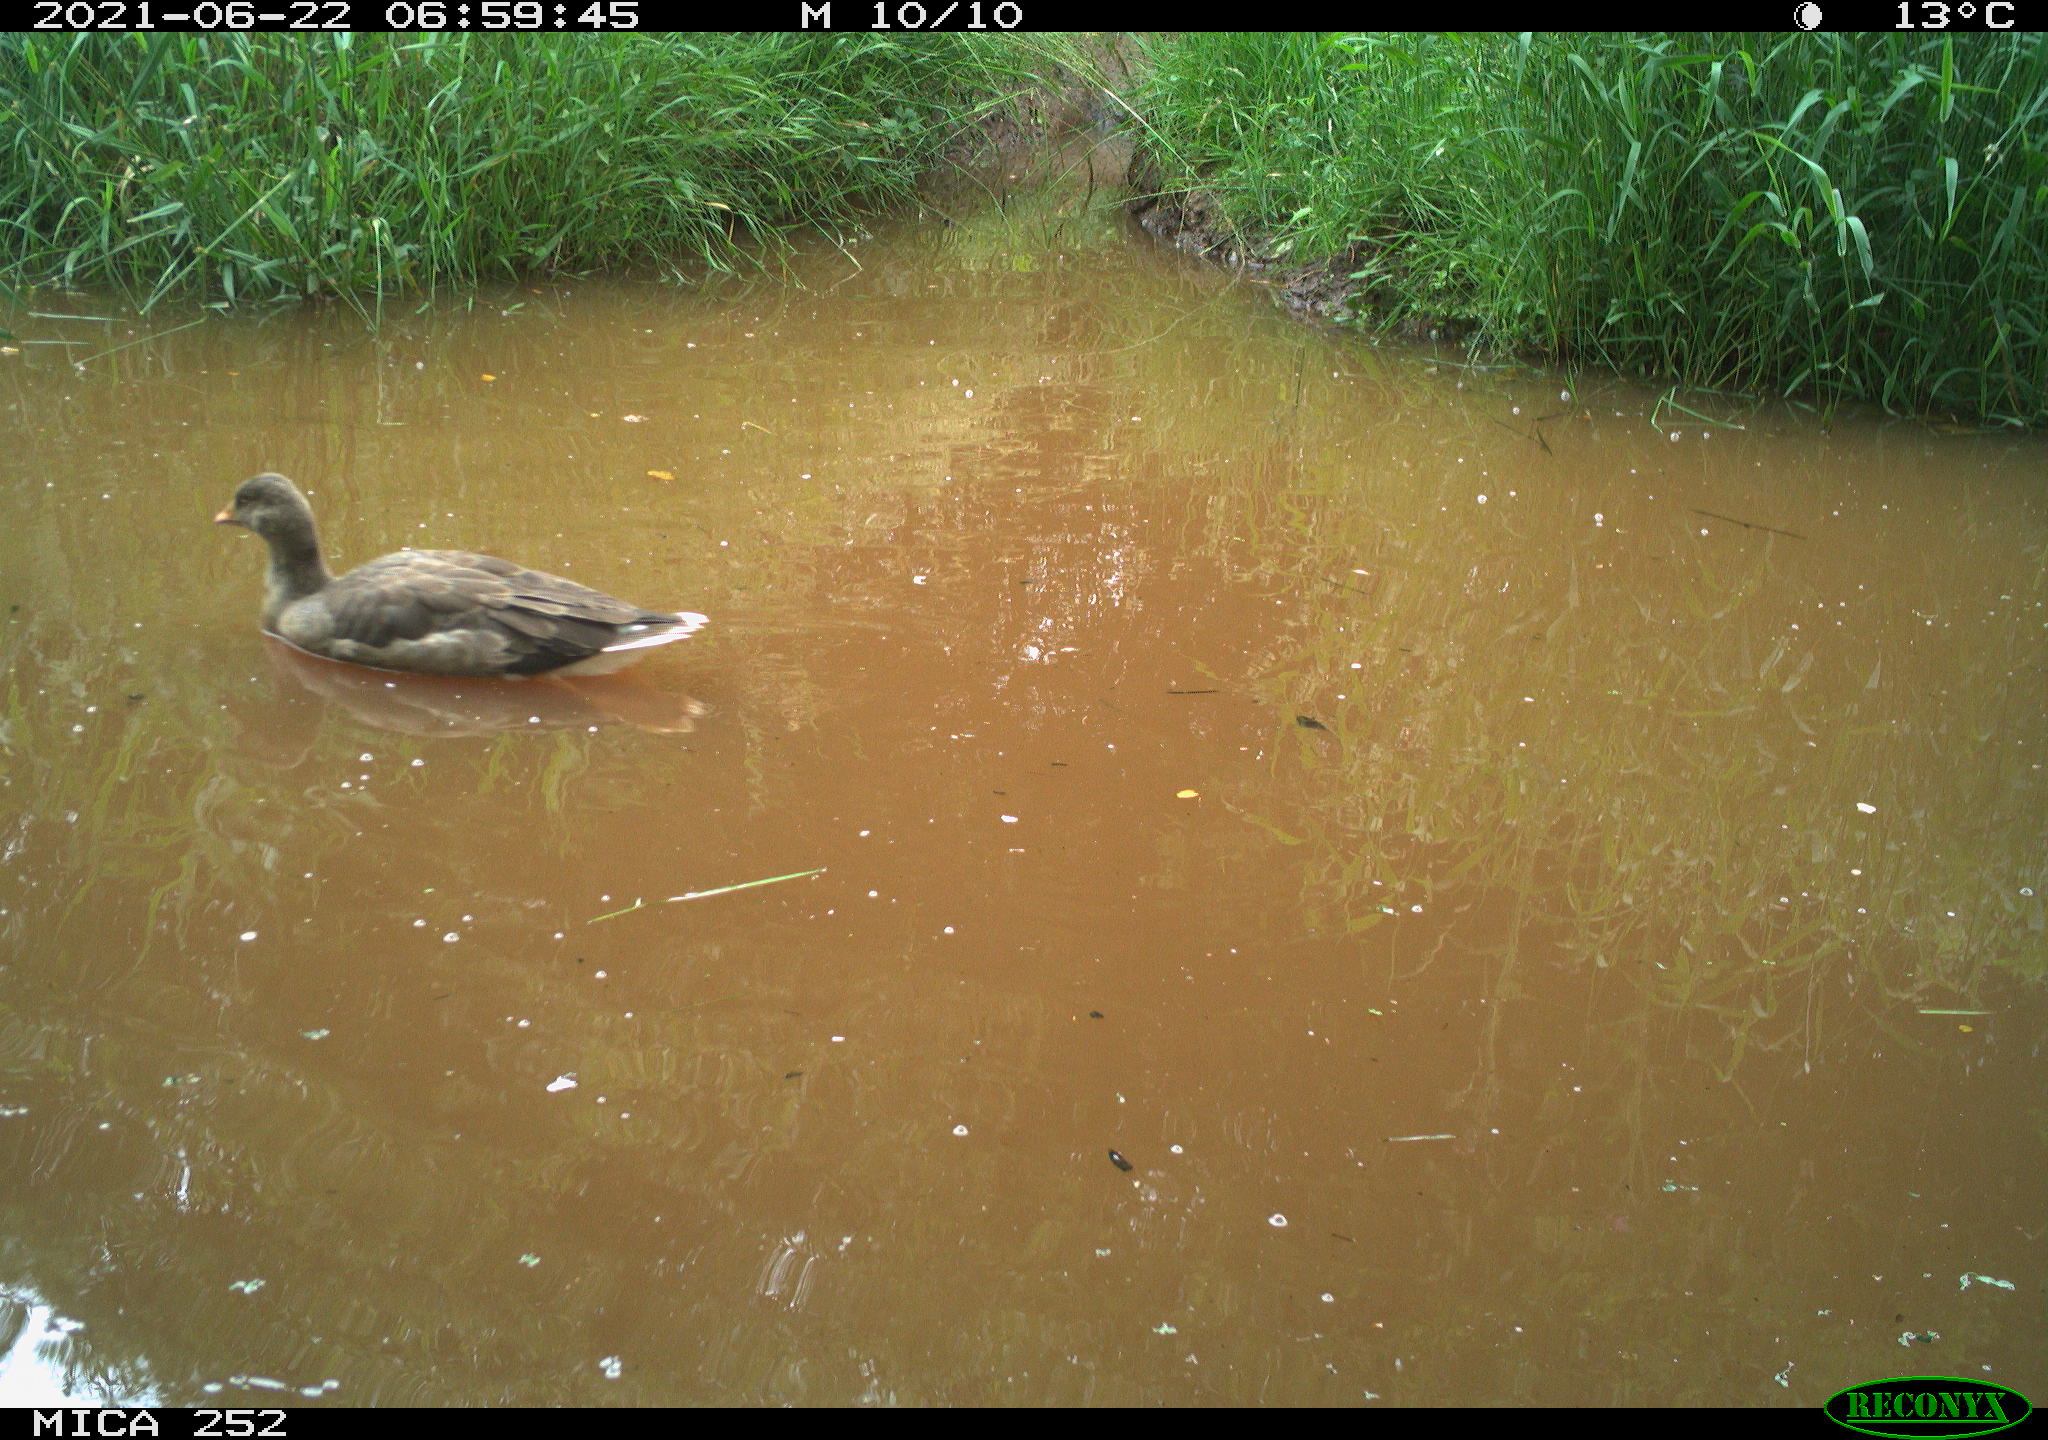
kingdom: Animalia
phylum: Chordata
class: Aves
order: Anseriformes
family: Anatidae
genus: Anser
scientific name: Anser anser
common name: Greylag goose
